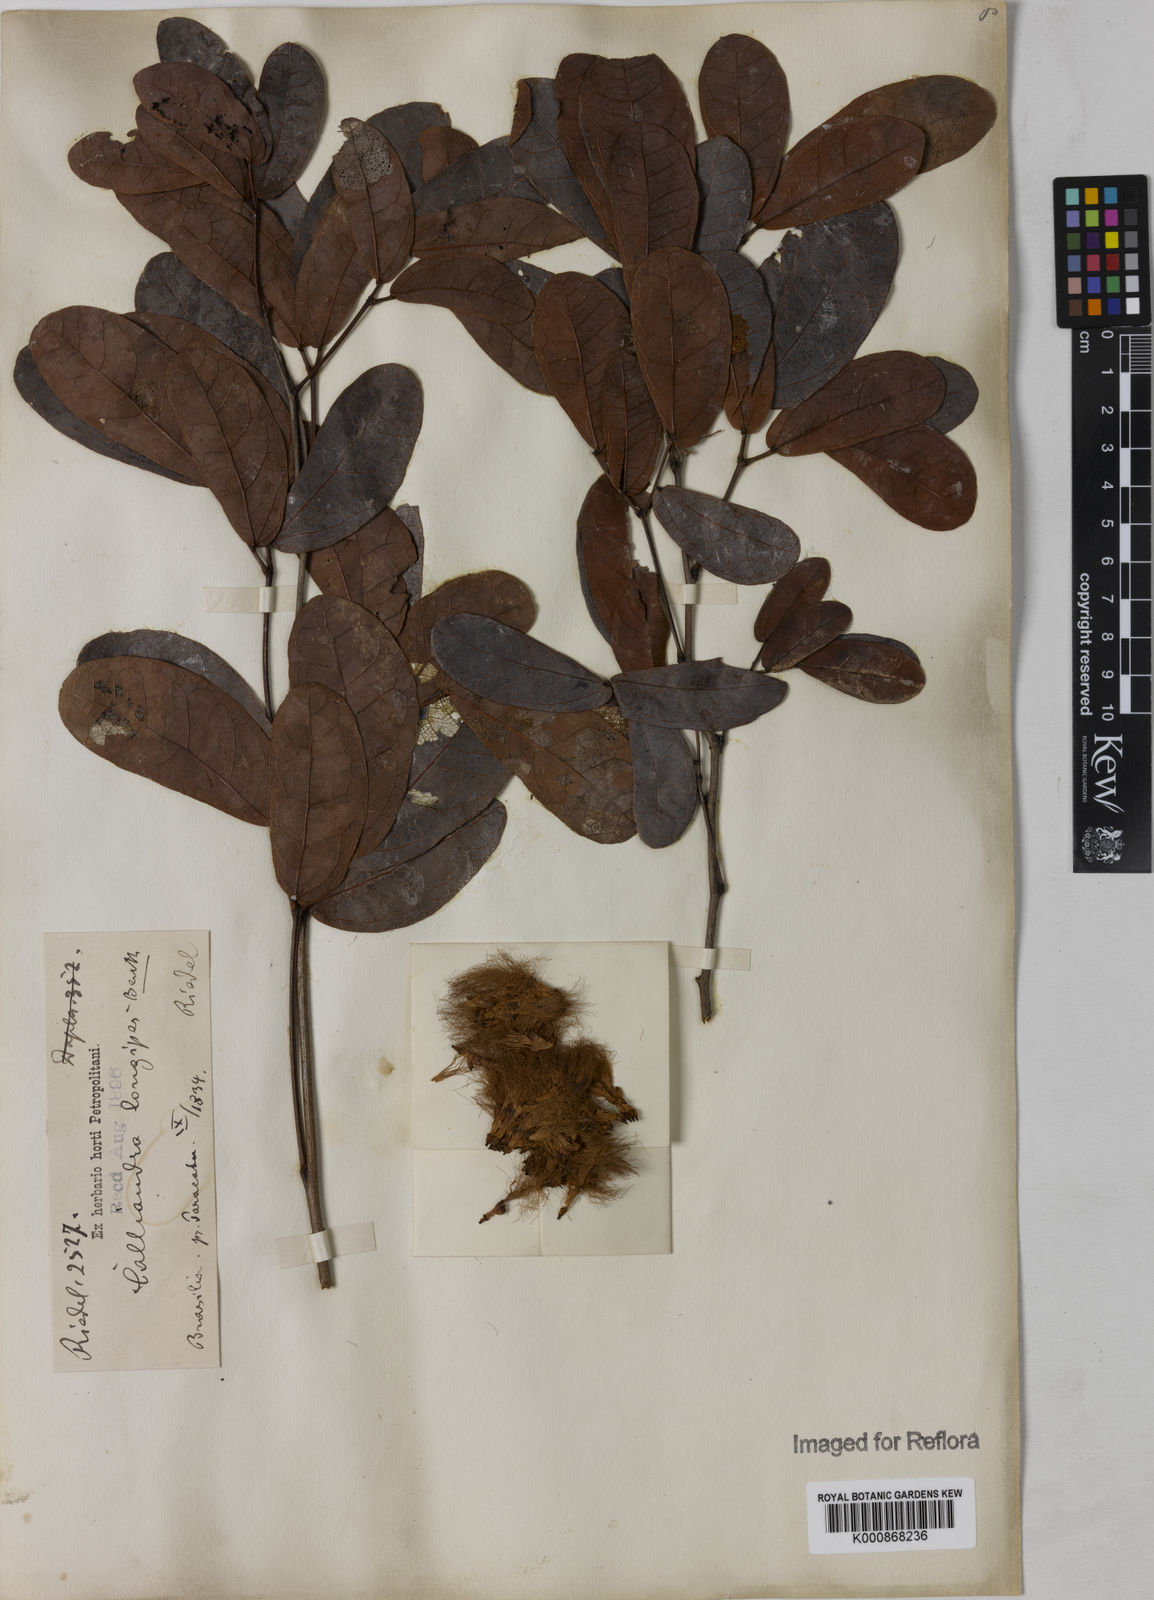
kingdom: Plantae
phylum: Tracheophyta
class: Magnoliopsida
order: Fabales
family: Fabaceae
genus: Calliandra
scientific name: Calliandra longipes
